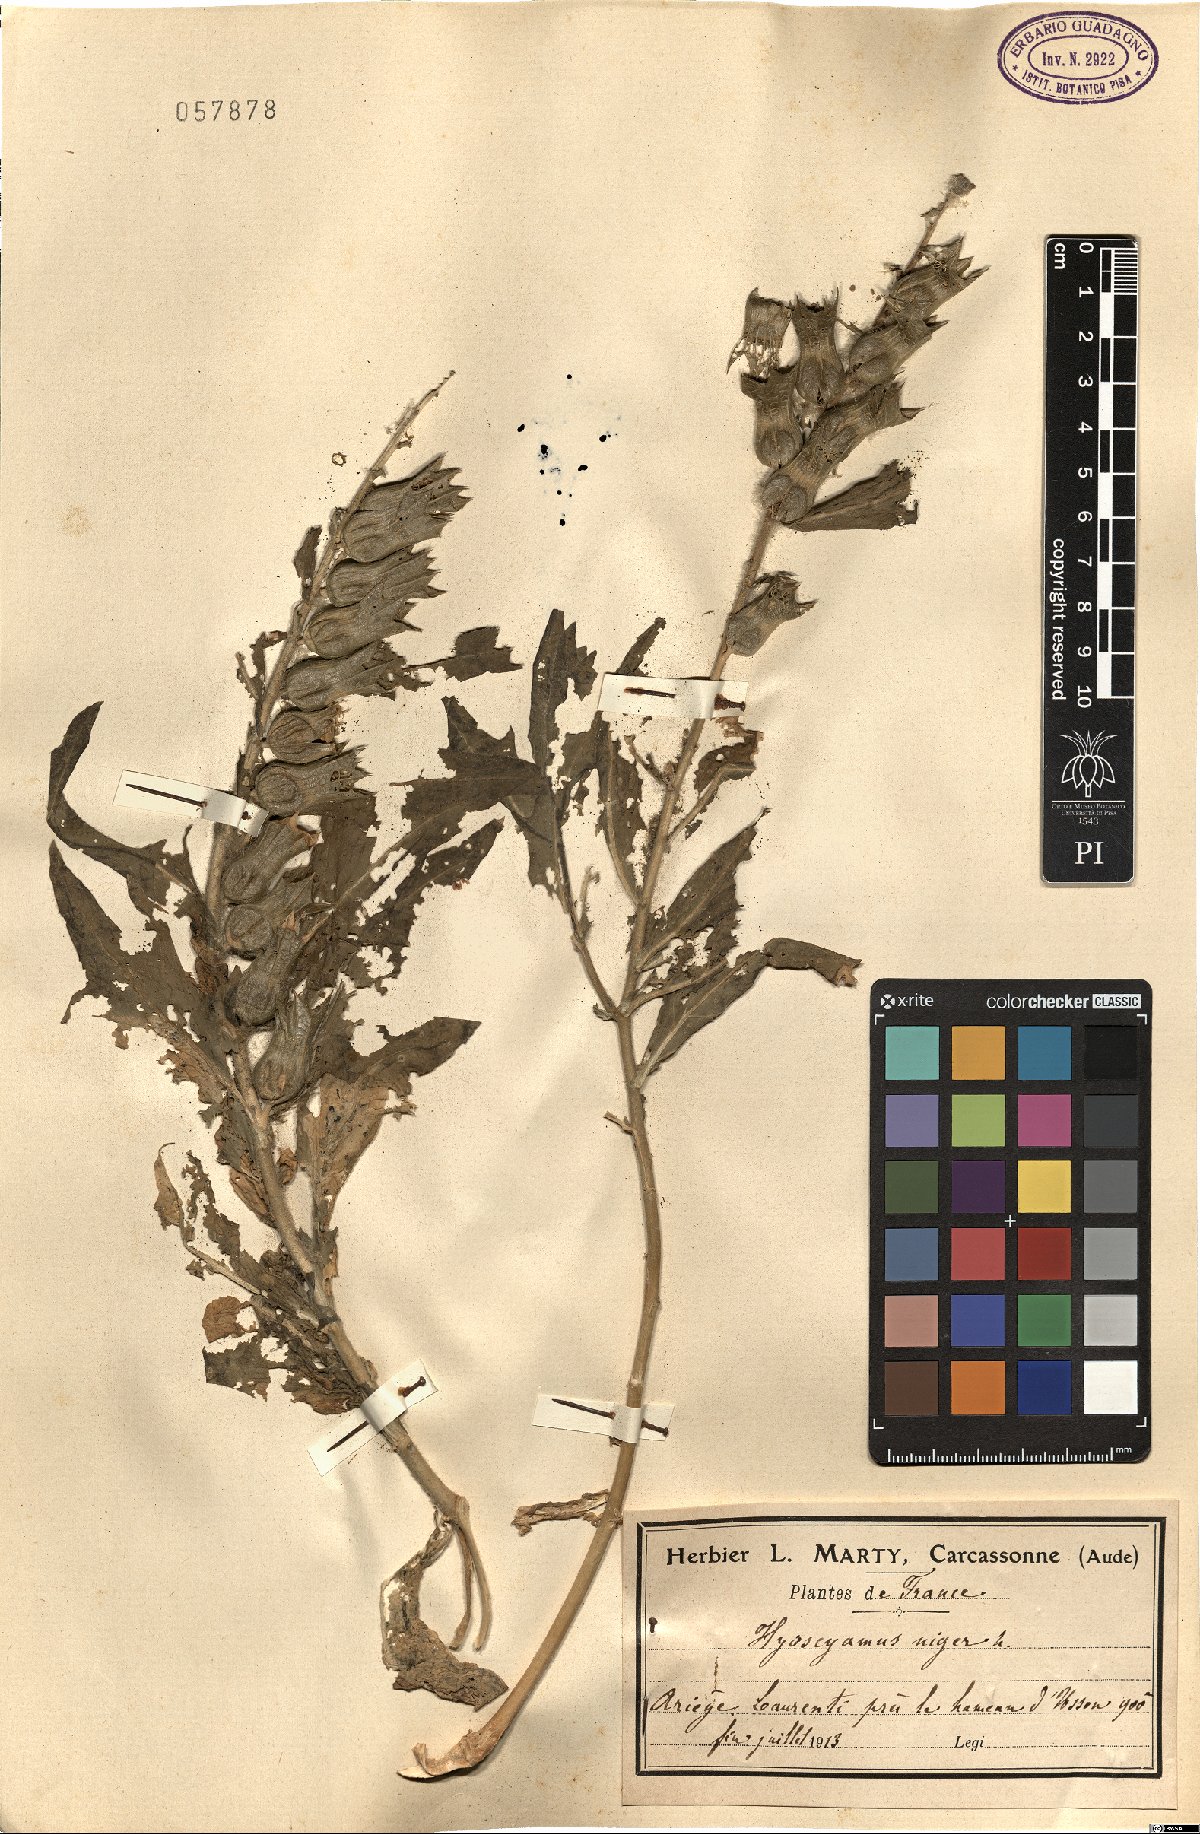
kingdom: Plantae
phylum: Tracheophyta
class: Magnoliopsida
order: Solanales
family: Solanaceae
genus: Hyoscyamus
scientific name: Hyoscyamus niger
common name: Henbane
